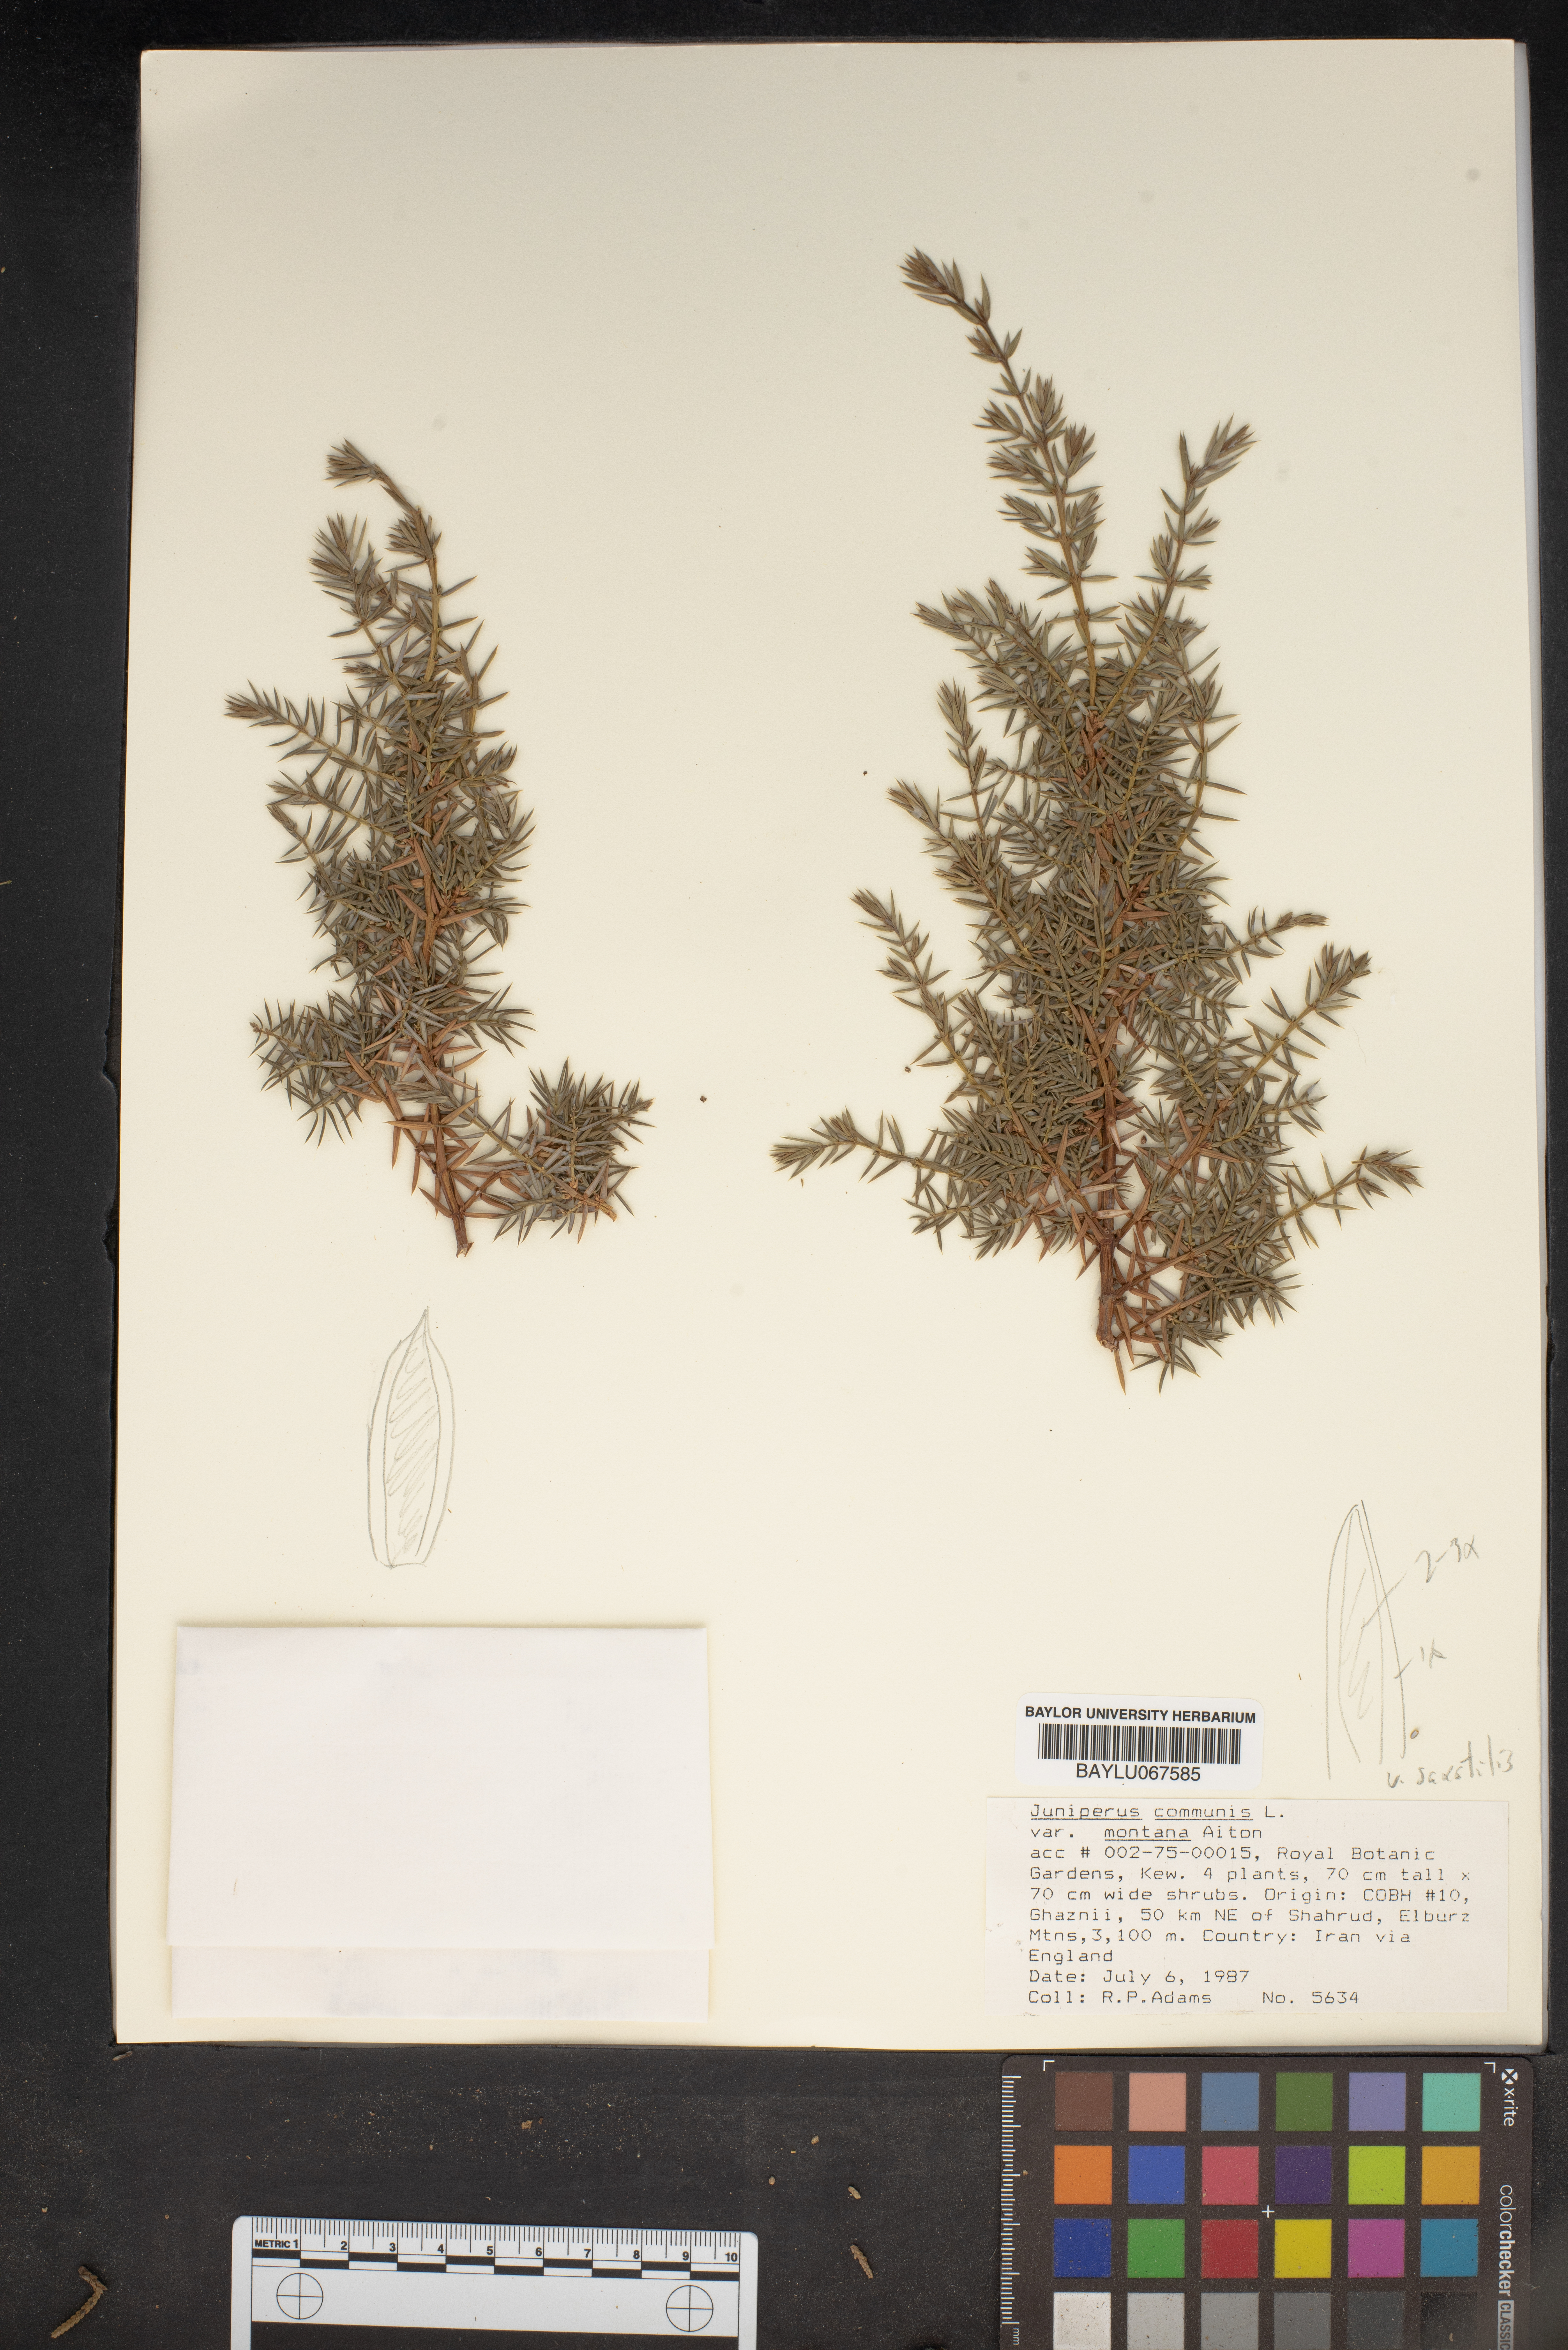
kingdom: Plantae
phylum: Tracheophyta
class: Pinopsida
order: Pinales
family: Cupressaceae
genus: Juniperus
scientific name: Juniperus communis
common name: Common juniper
